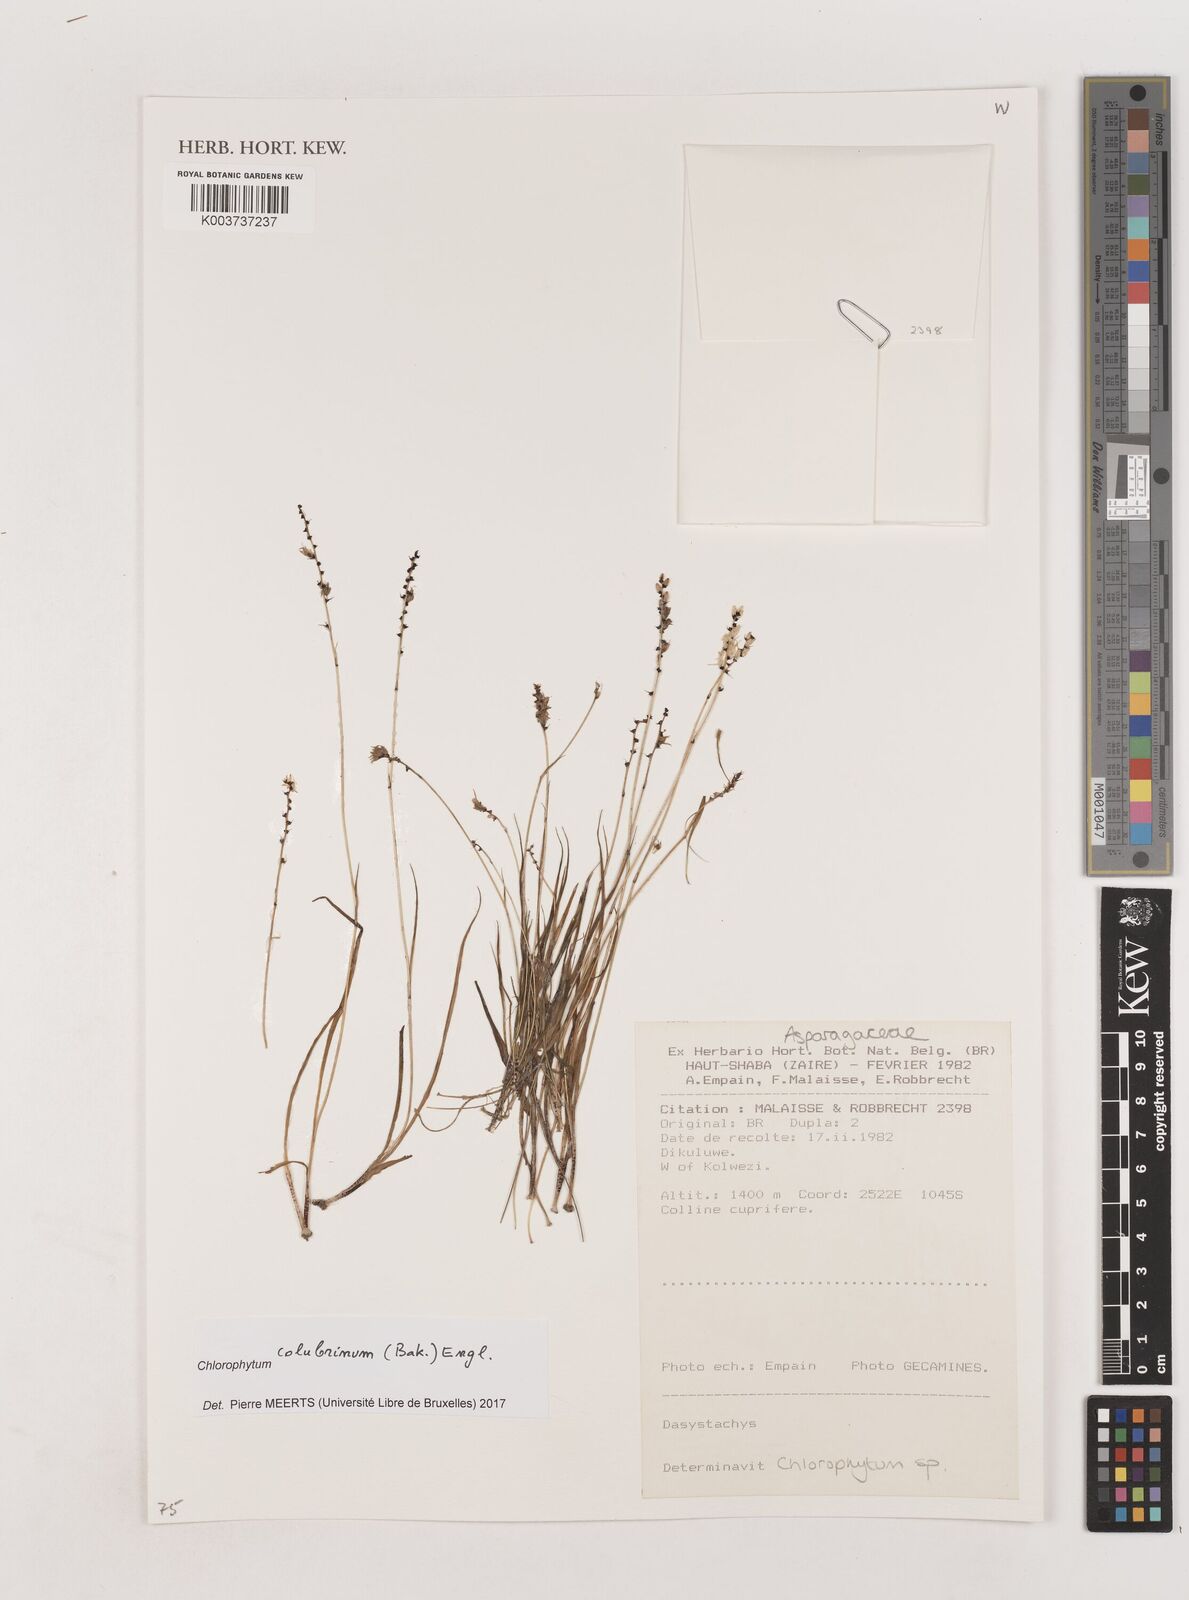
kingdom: Plantae
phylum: Tracheophyta
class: Liliopsida
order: Asparagales
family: Asparagaceae
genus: Chlorophytum
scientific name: Chlorophytum colubrinum
